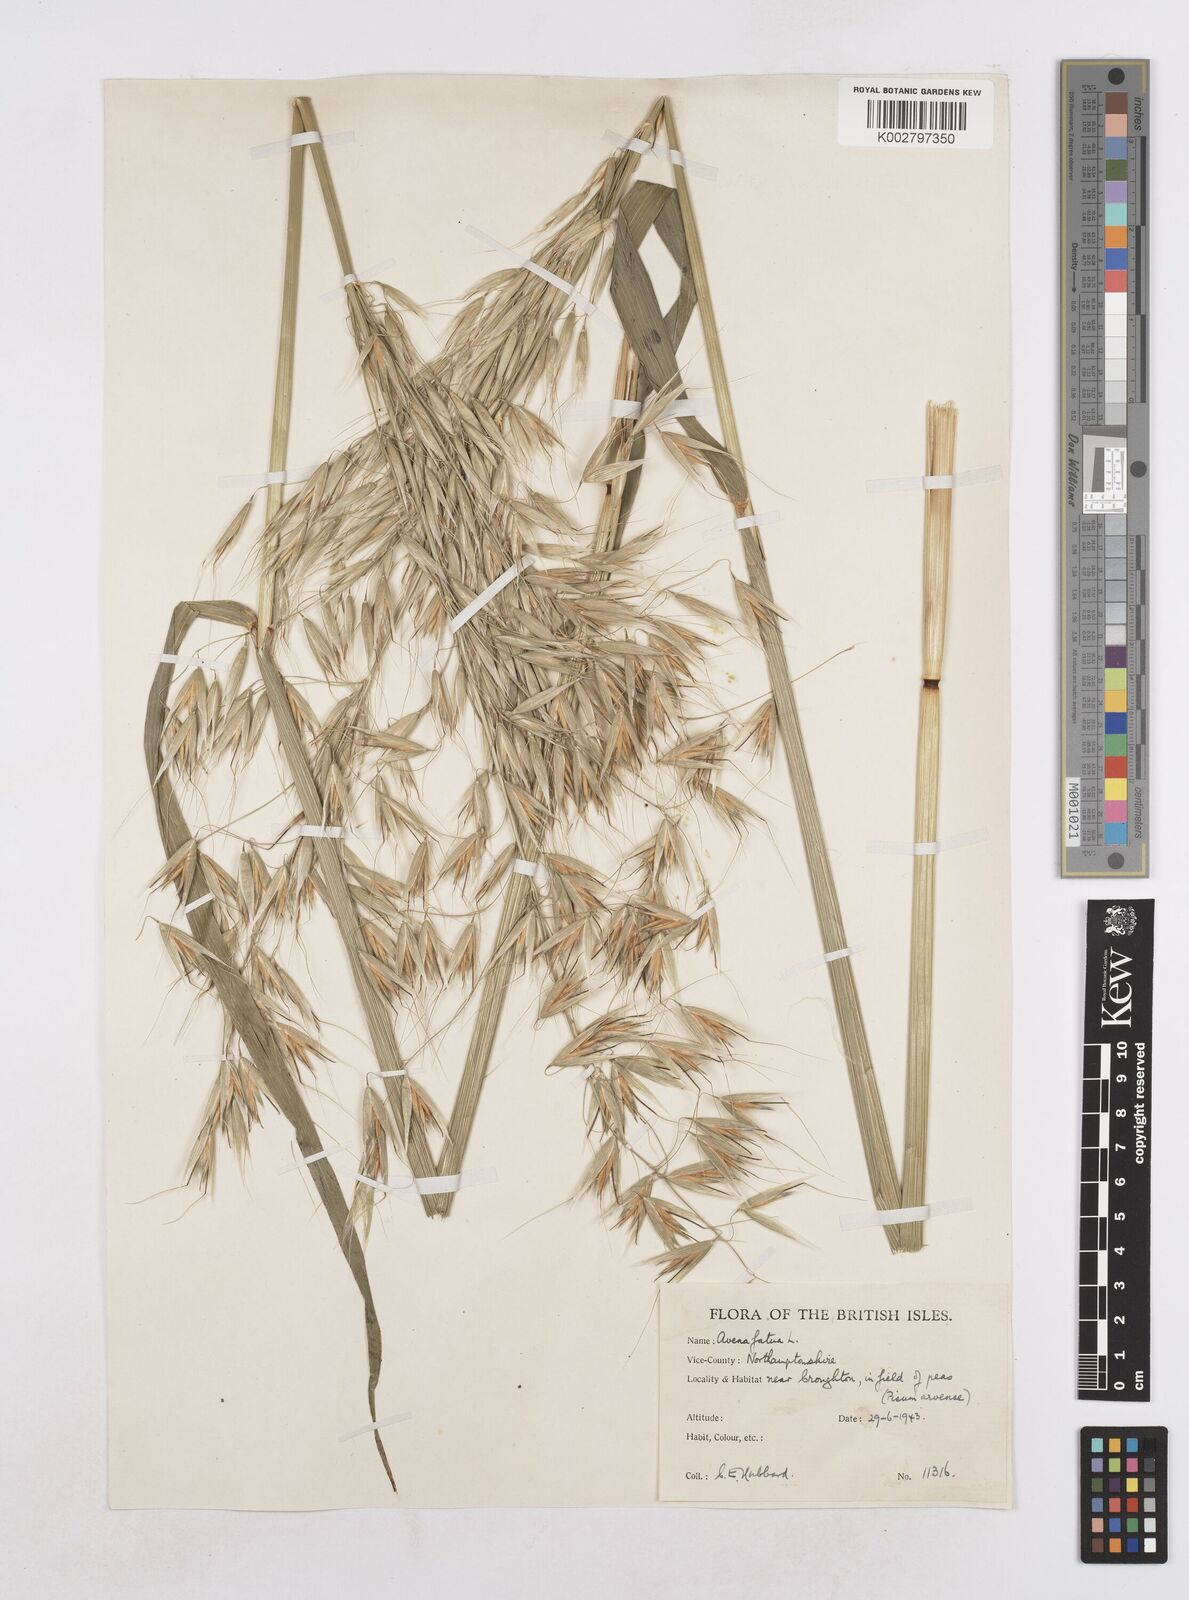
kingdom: Plantae
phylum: Tracheophyta
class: Liliopsida
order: Poales
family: Poaceae
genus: Avena
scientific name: Avena fatua
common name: Wild oat
